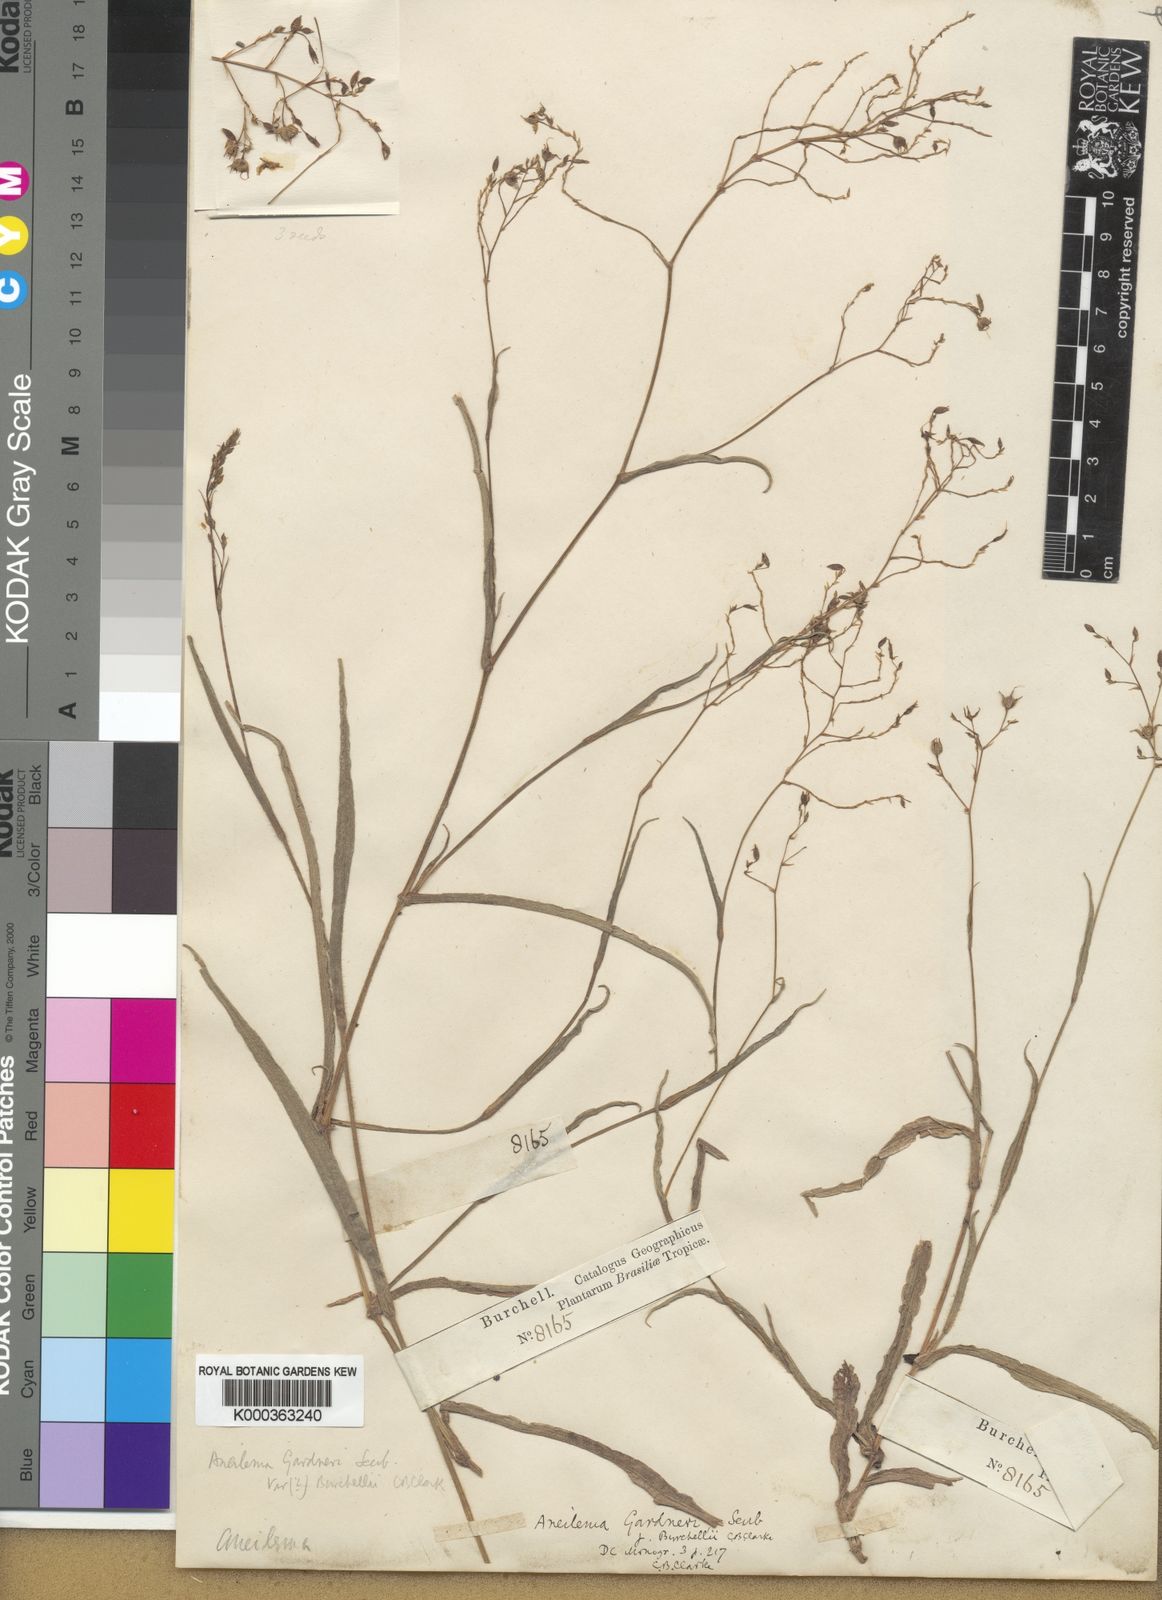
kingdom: Plantae
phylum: Tracheophyta
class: Liliopsida
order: Commelinales
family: Commelinaceae
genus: Murdannia
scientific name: Murdannia burchellii
